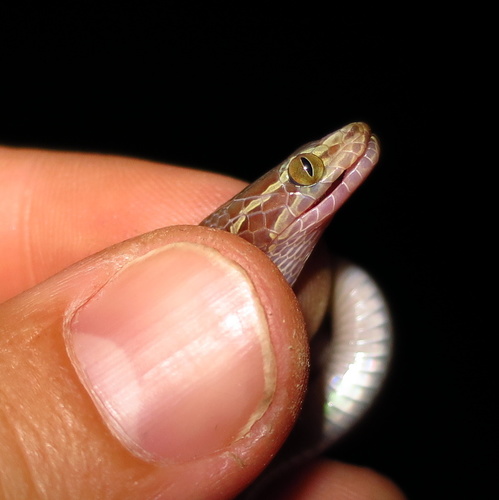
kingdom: Animalia
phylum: Chordata
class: Squamata
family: Lamprophiidae
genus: Boaedon
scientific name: Boaedon capensis
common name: Brown house snake
